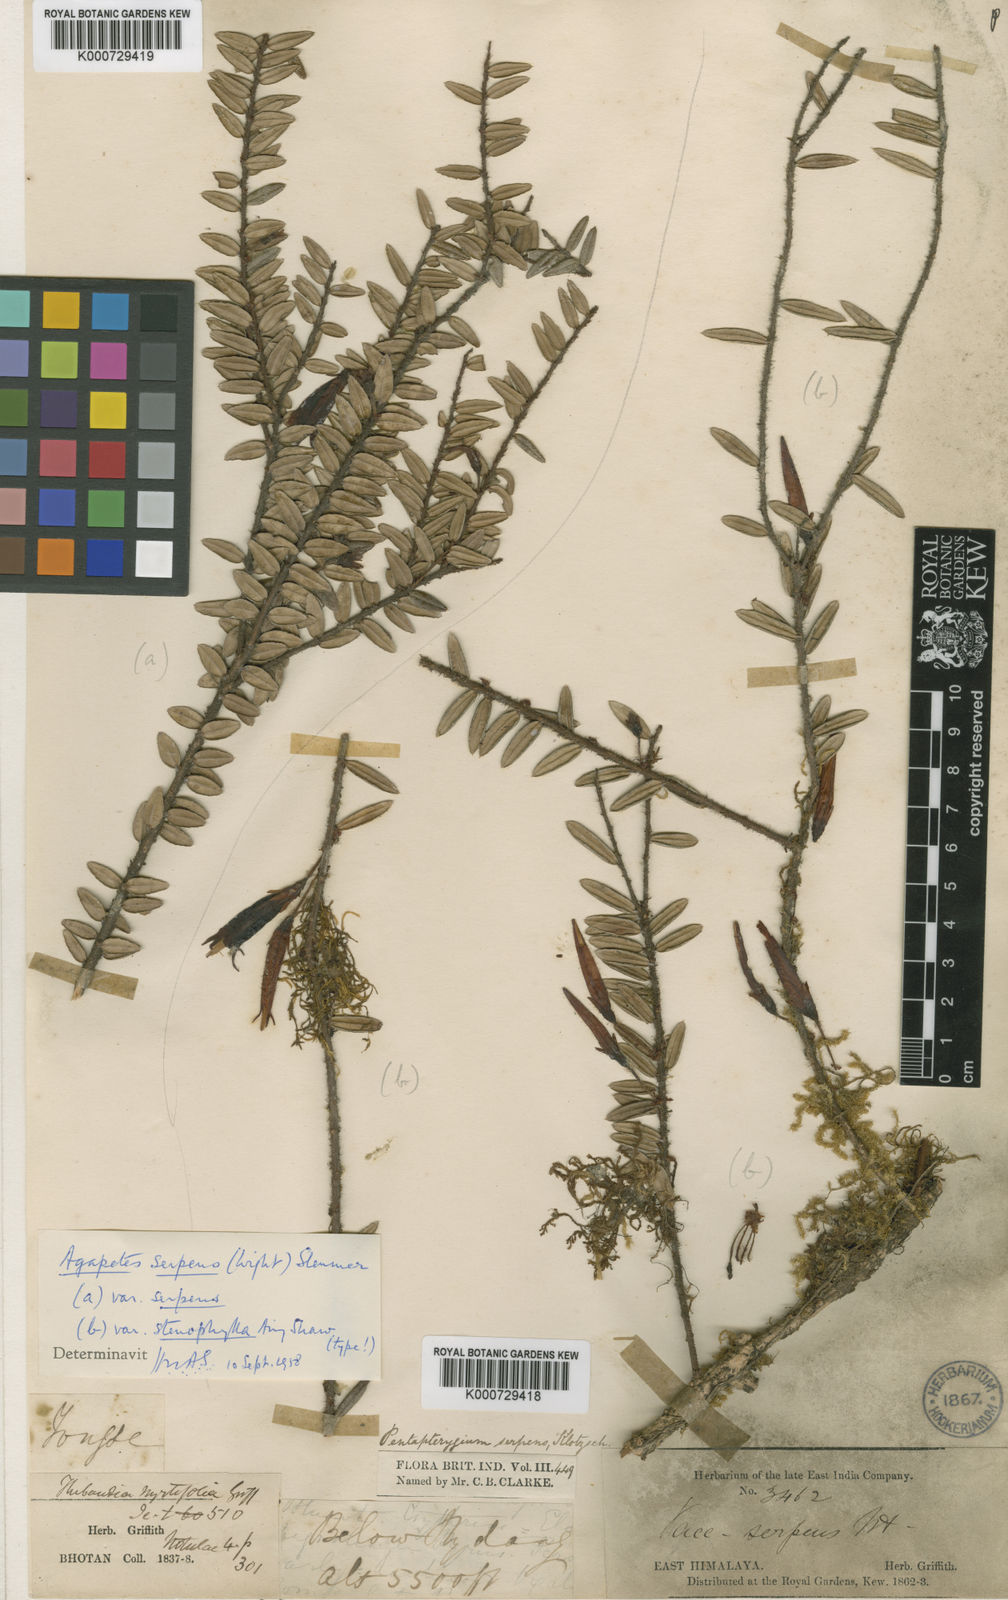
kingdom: Plantae
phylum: Tracheophyta
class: Magnoliopsida
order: Ericales
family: Ericaceae
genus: Agapetes
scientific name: Agapetes serpens
